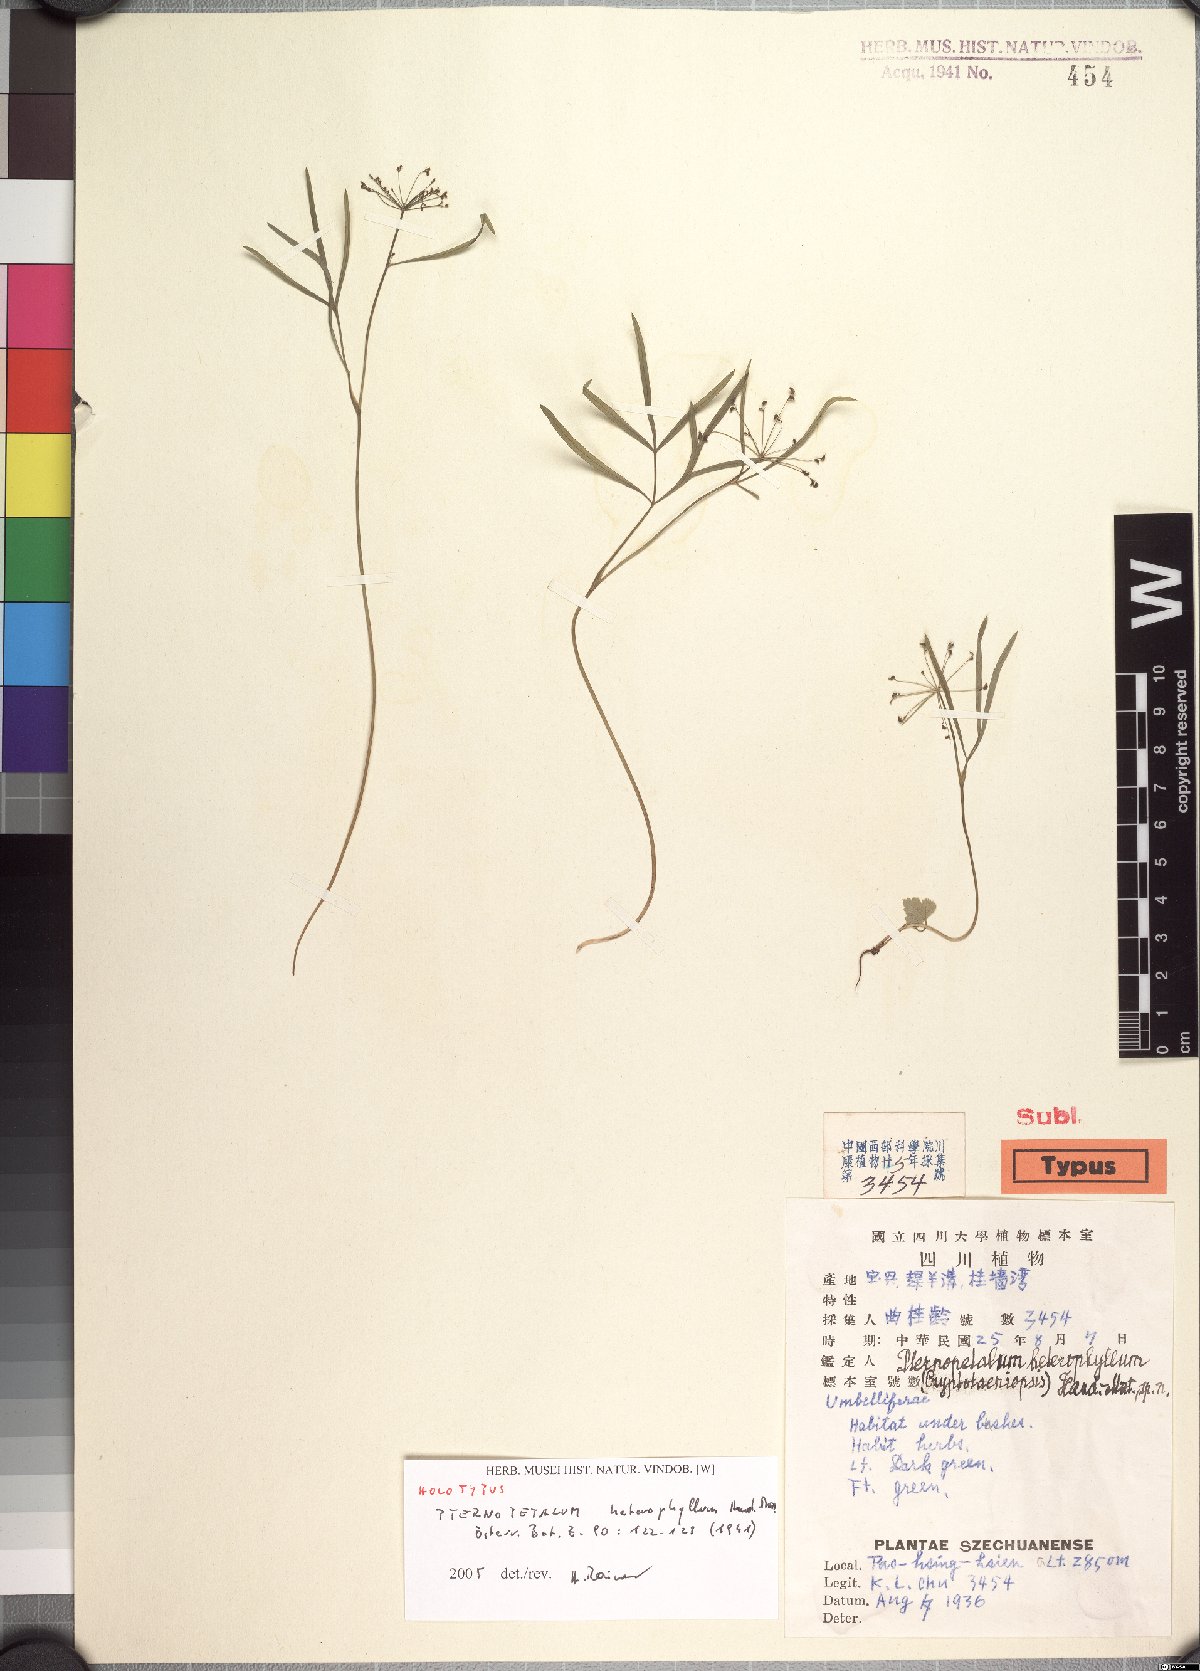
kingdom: Plantae
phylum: Tracheophyta
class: Magnoliopsida
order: Apiales
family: Apiaceae
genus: Pternopetalum
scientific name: Pternopetalum tanakae
